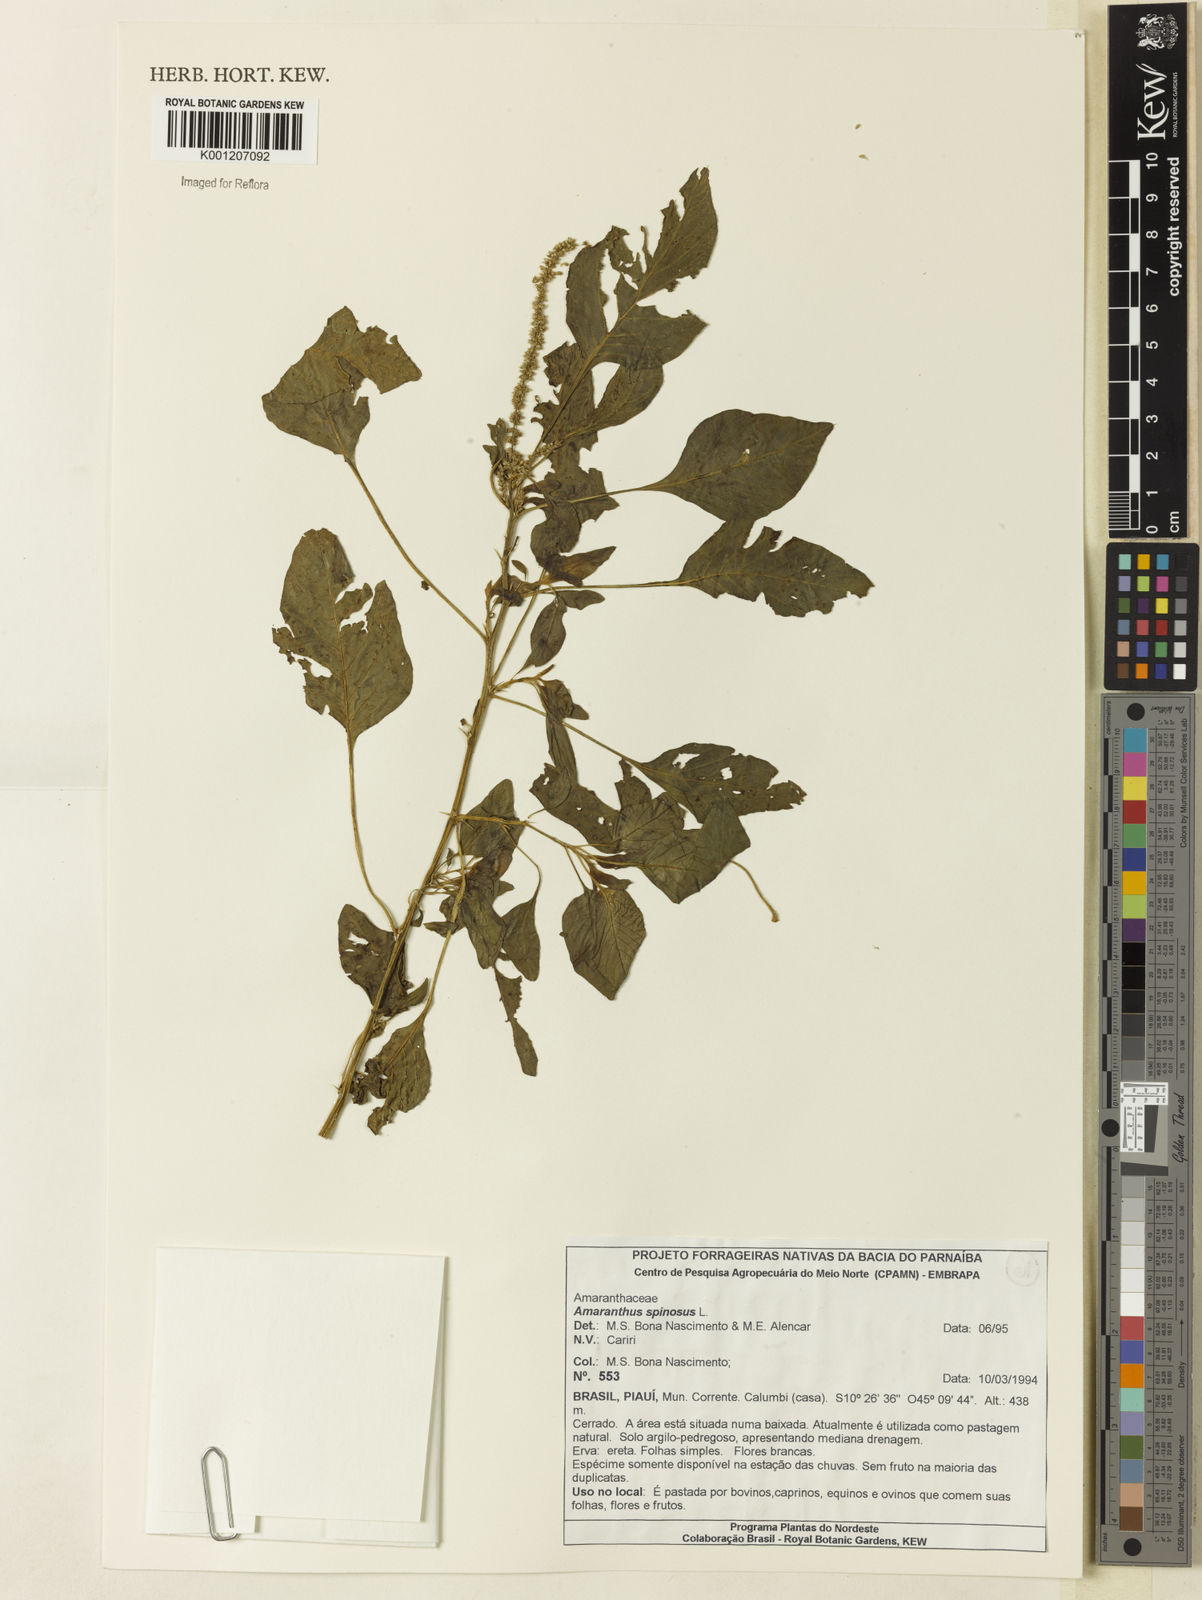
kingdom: Plantae
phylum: Tracheophyta
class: Magnoliopsida
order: Caryophyllales
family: Amaranthaceae
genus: Amaranthus
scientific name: Amaranthus spinosus
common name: Spiny amaranth
